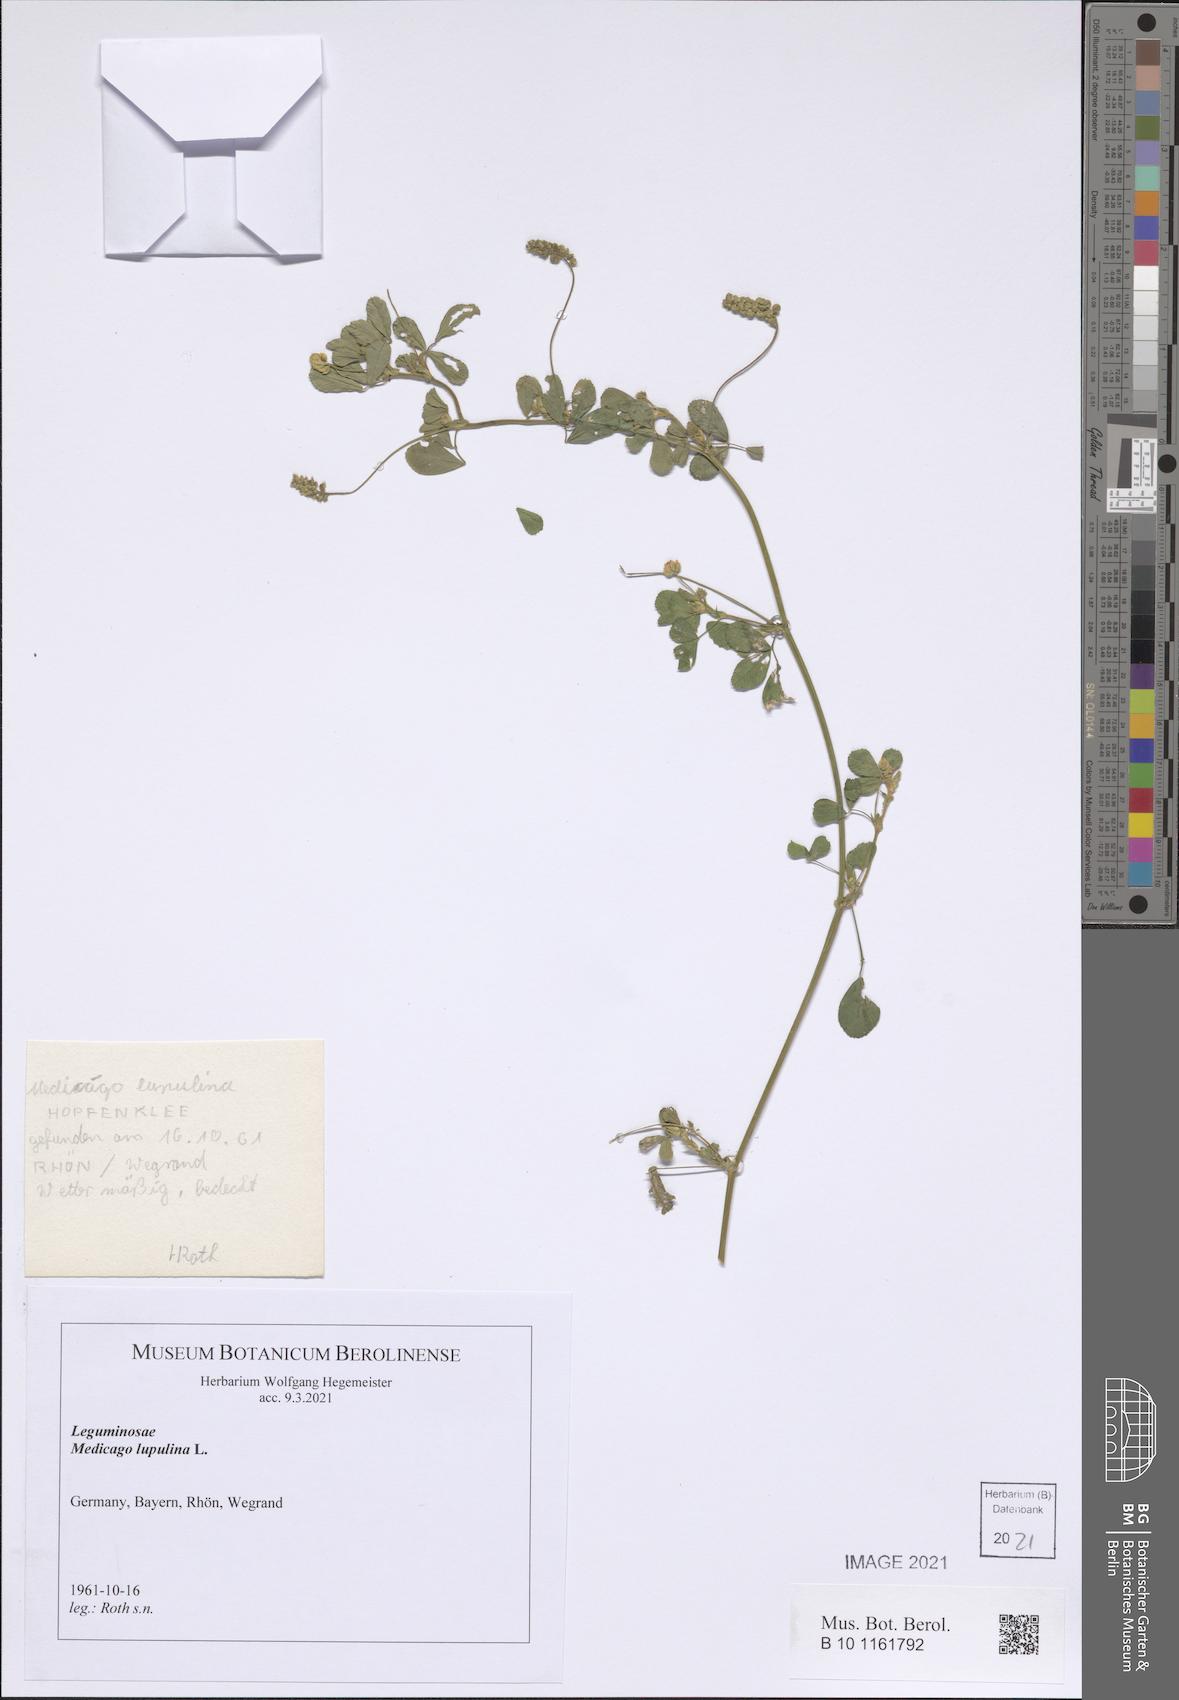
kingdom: Plantae
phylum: Tracheophyta
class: Magnoliopsida
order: Fabales
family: Fabaceae
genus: Medicago
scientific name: Medicago lupulina
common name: Black medick
